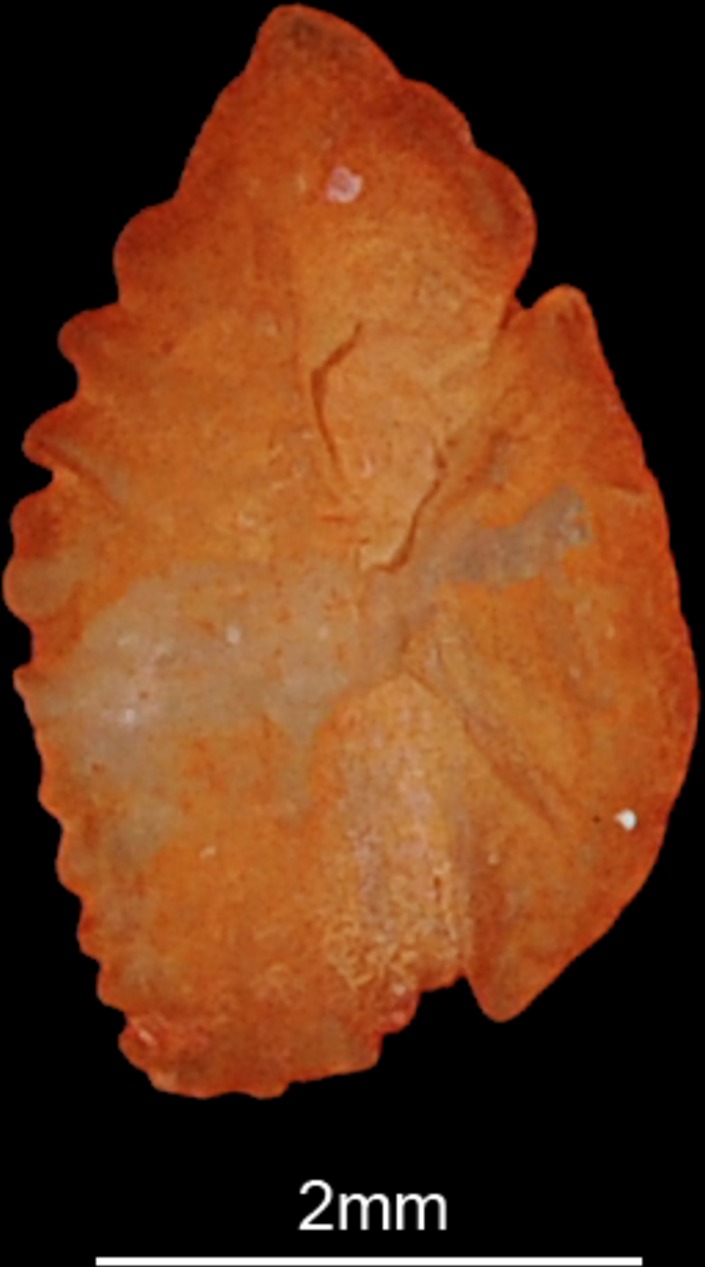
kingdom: Animalia
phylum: Chordata
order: Perciformes
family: Scaridae
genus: Hipposcarus
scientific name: Hipposcarus harid
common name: Candelamoa parrotfish
